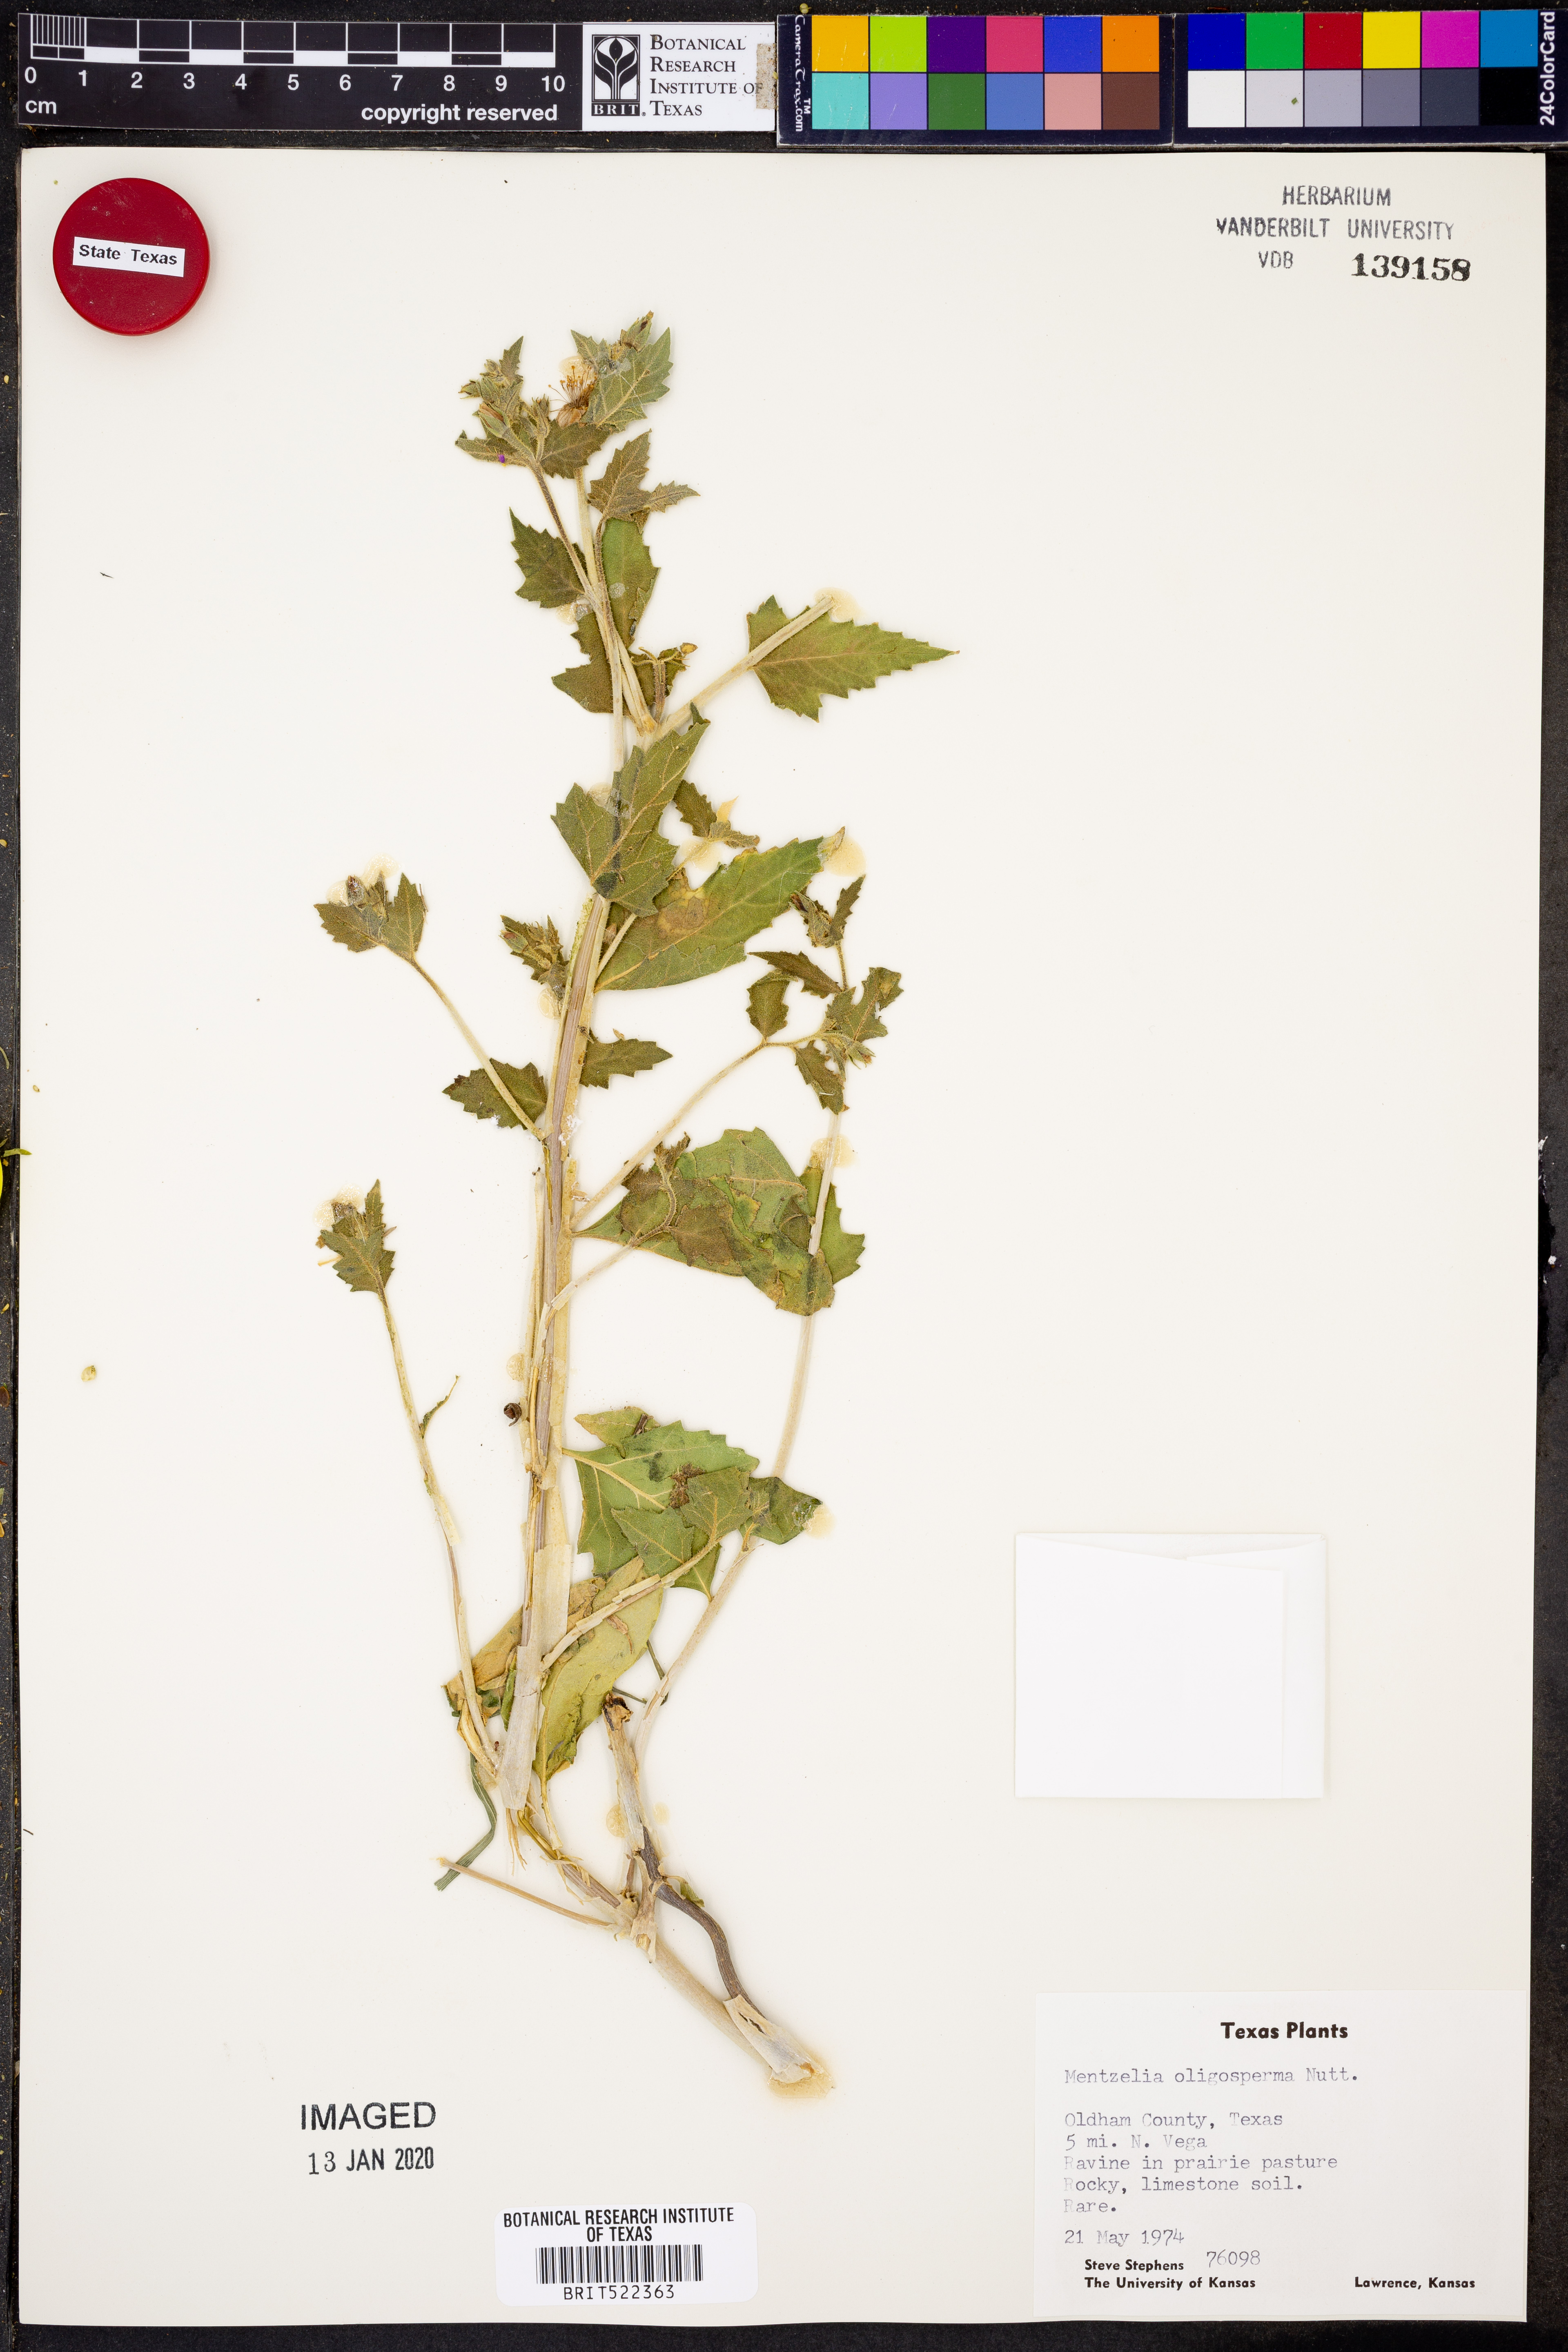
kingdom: Plantae
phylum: Tracheophyta
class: Magnoliopsida
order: Cornales
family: Loasaceae
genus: Mentzelia
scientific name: Mentzelia oligosperma
